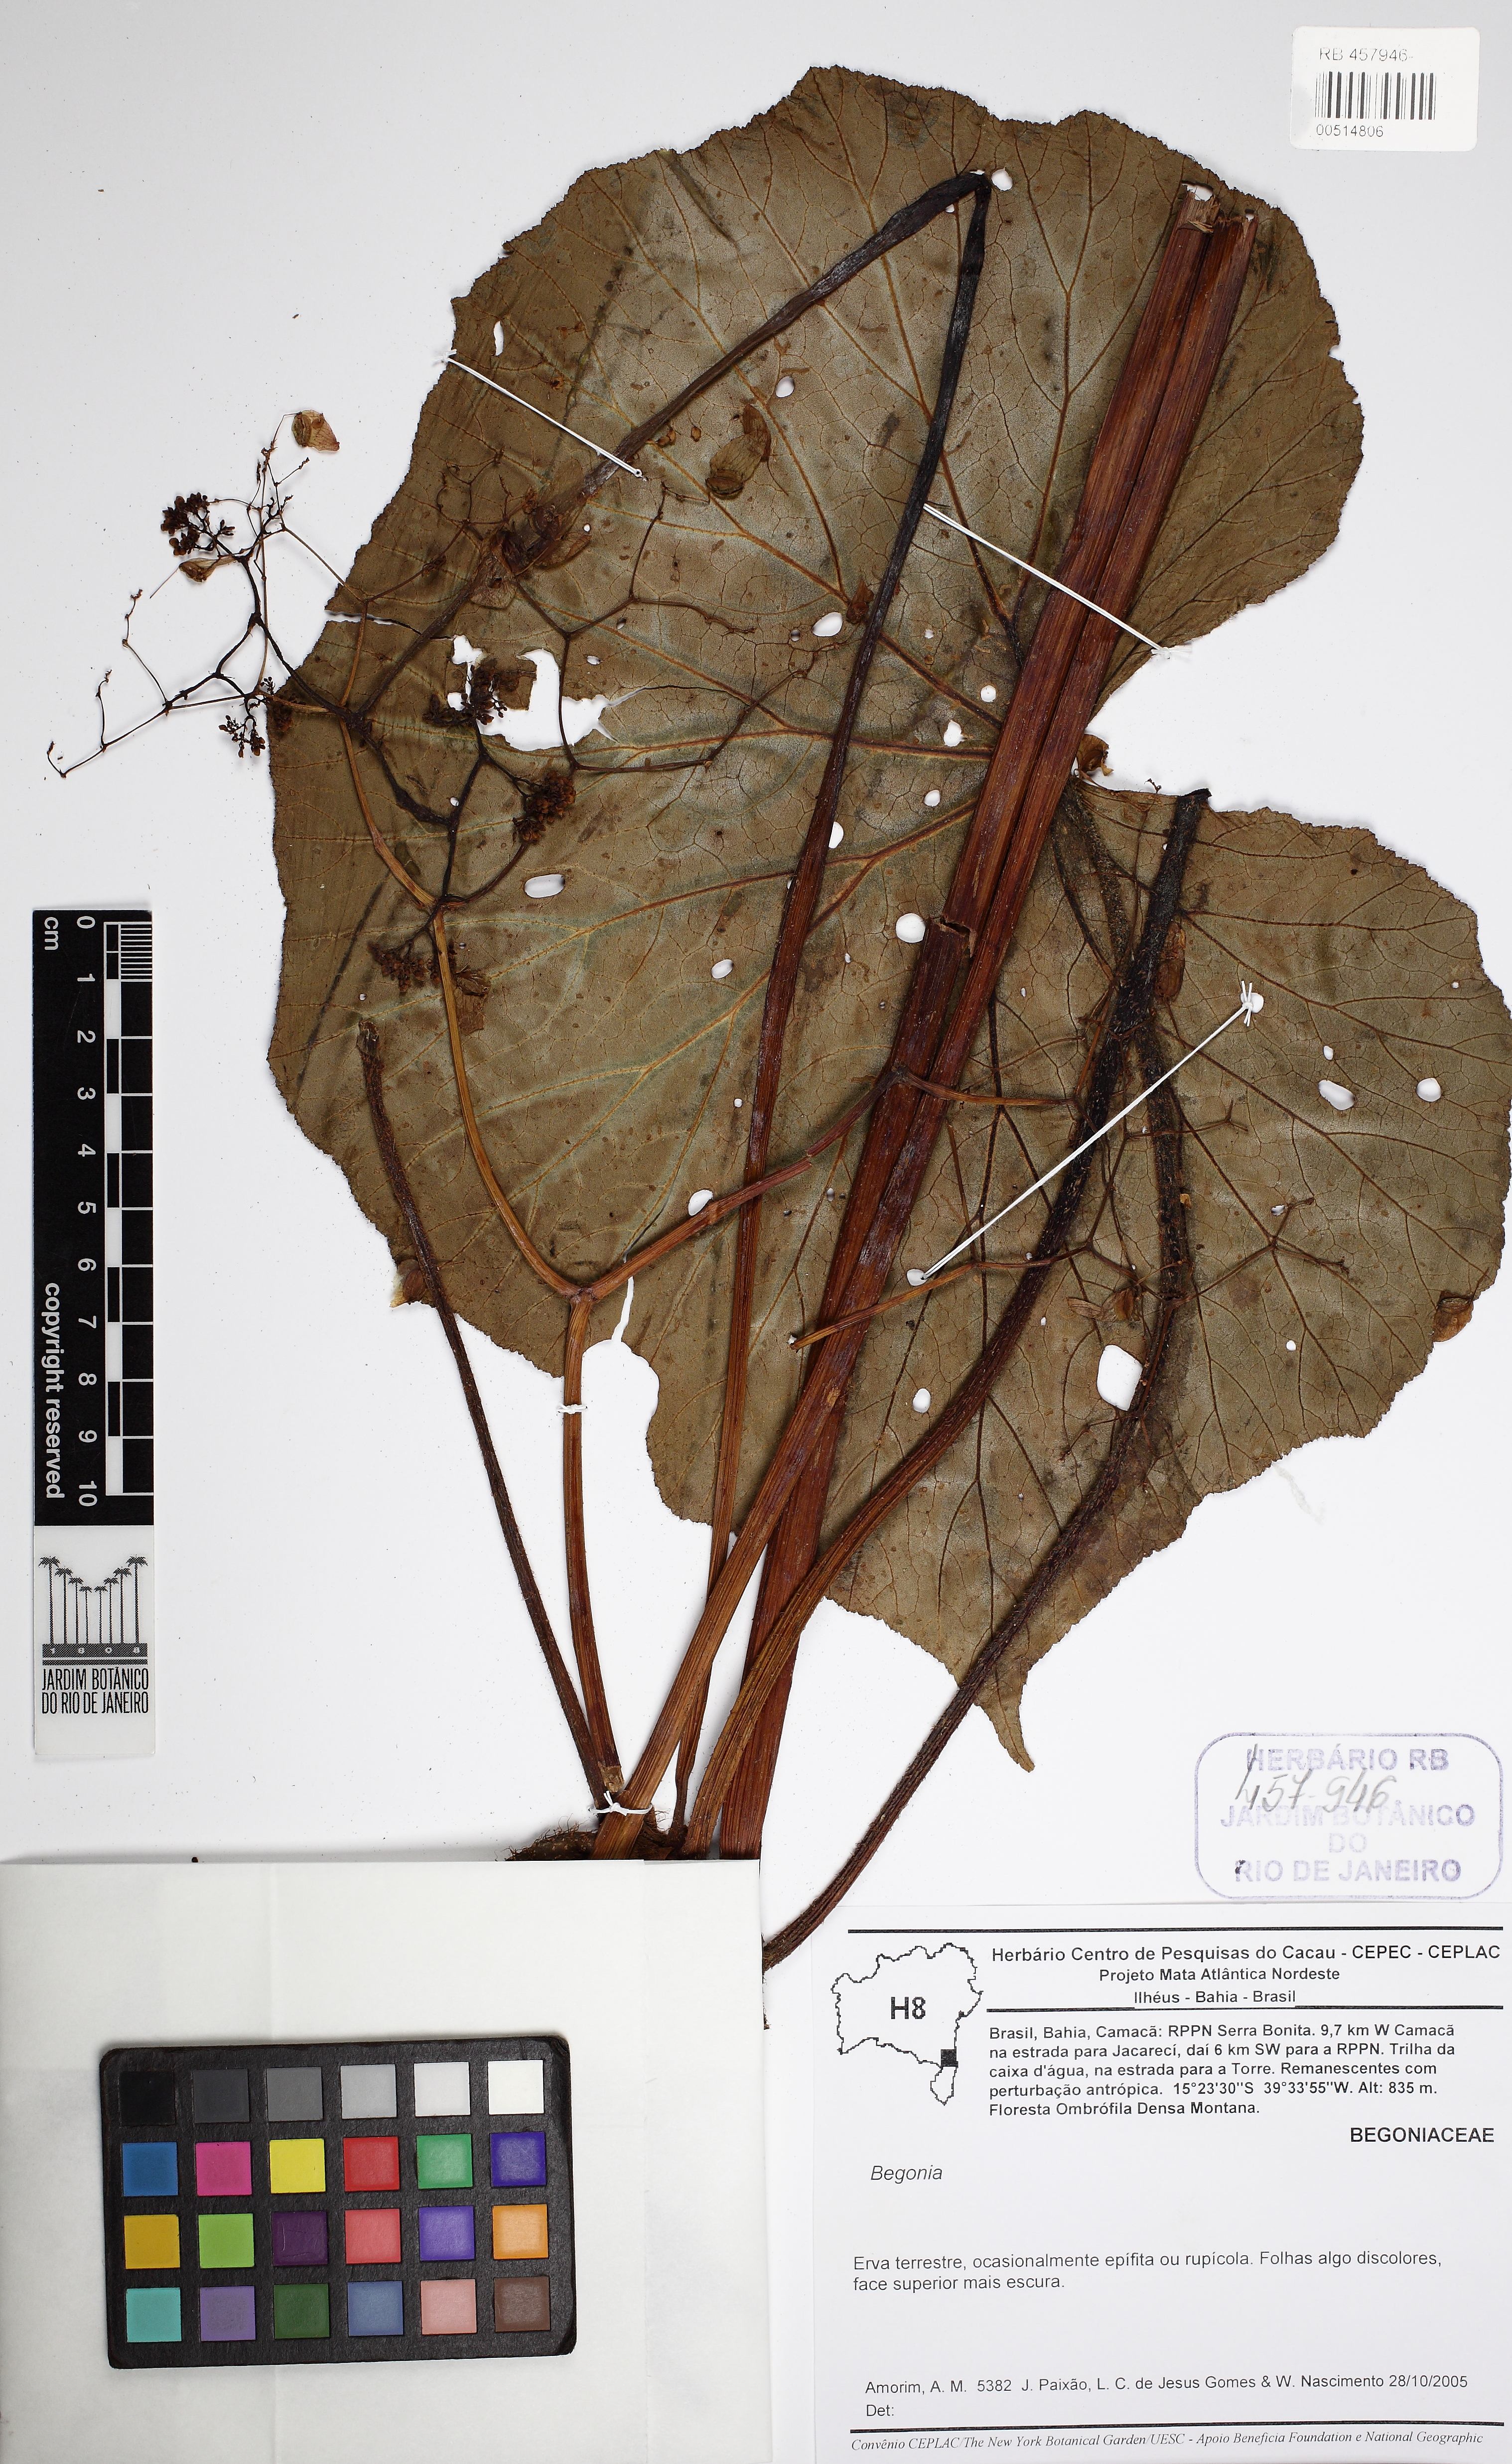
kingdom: Plantae
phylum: Tracheophyta
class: Magnoliopsida
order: Cucurbitales
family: Begoniaceae
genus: Begonia
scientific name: Begonia itaguassuensis
